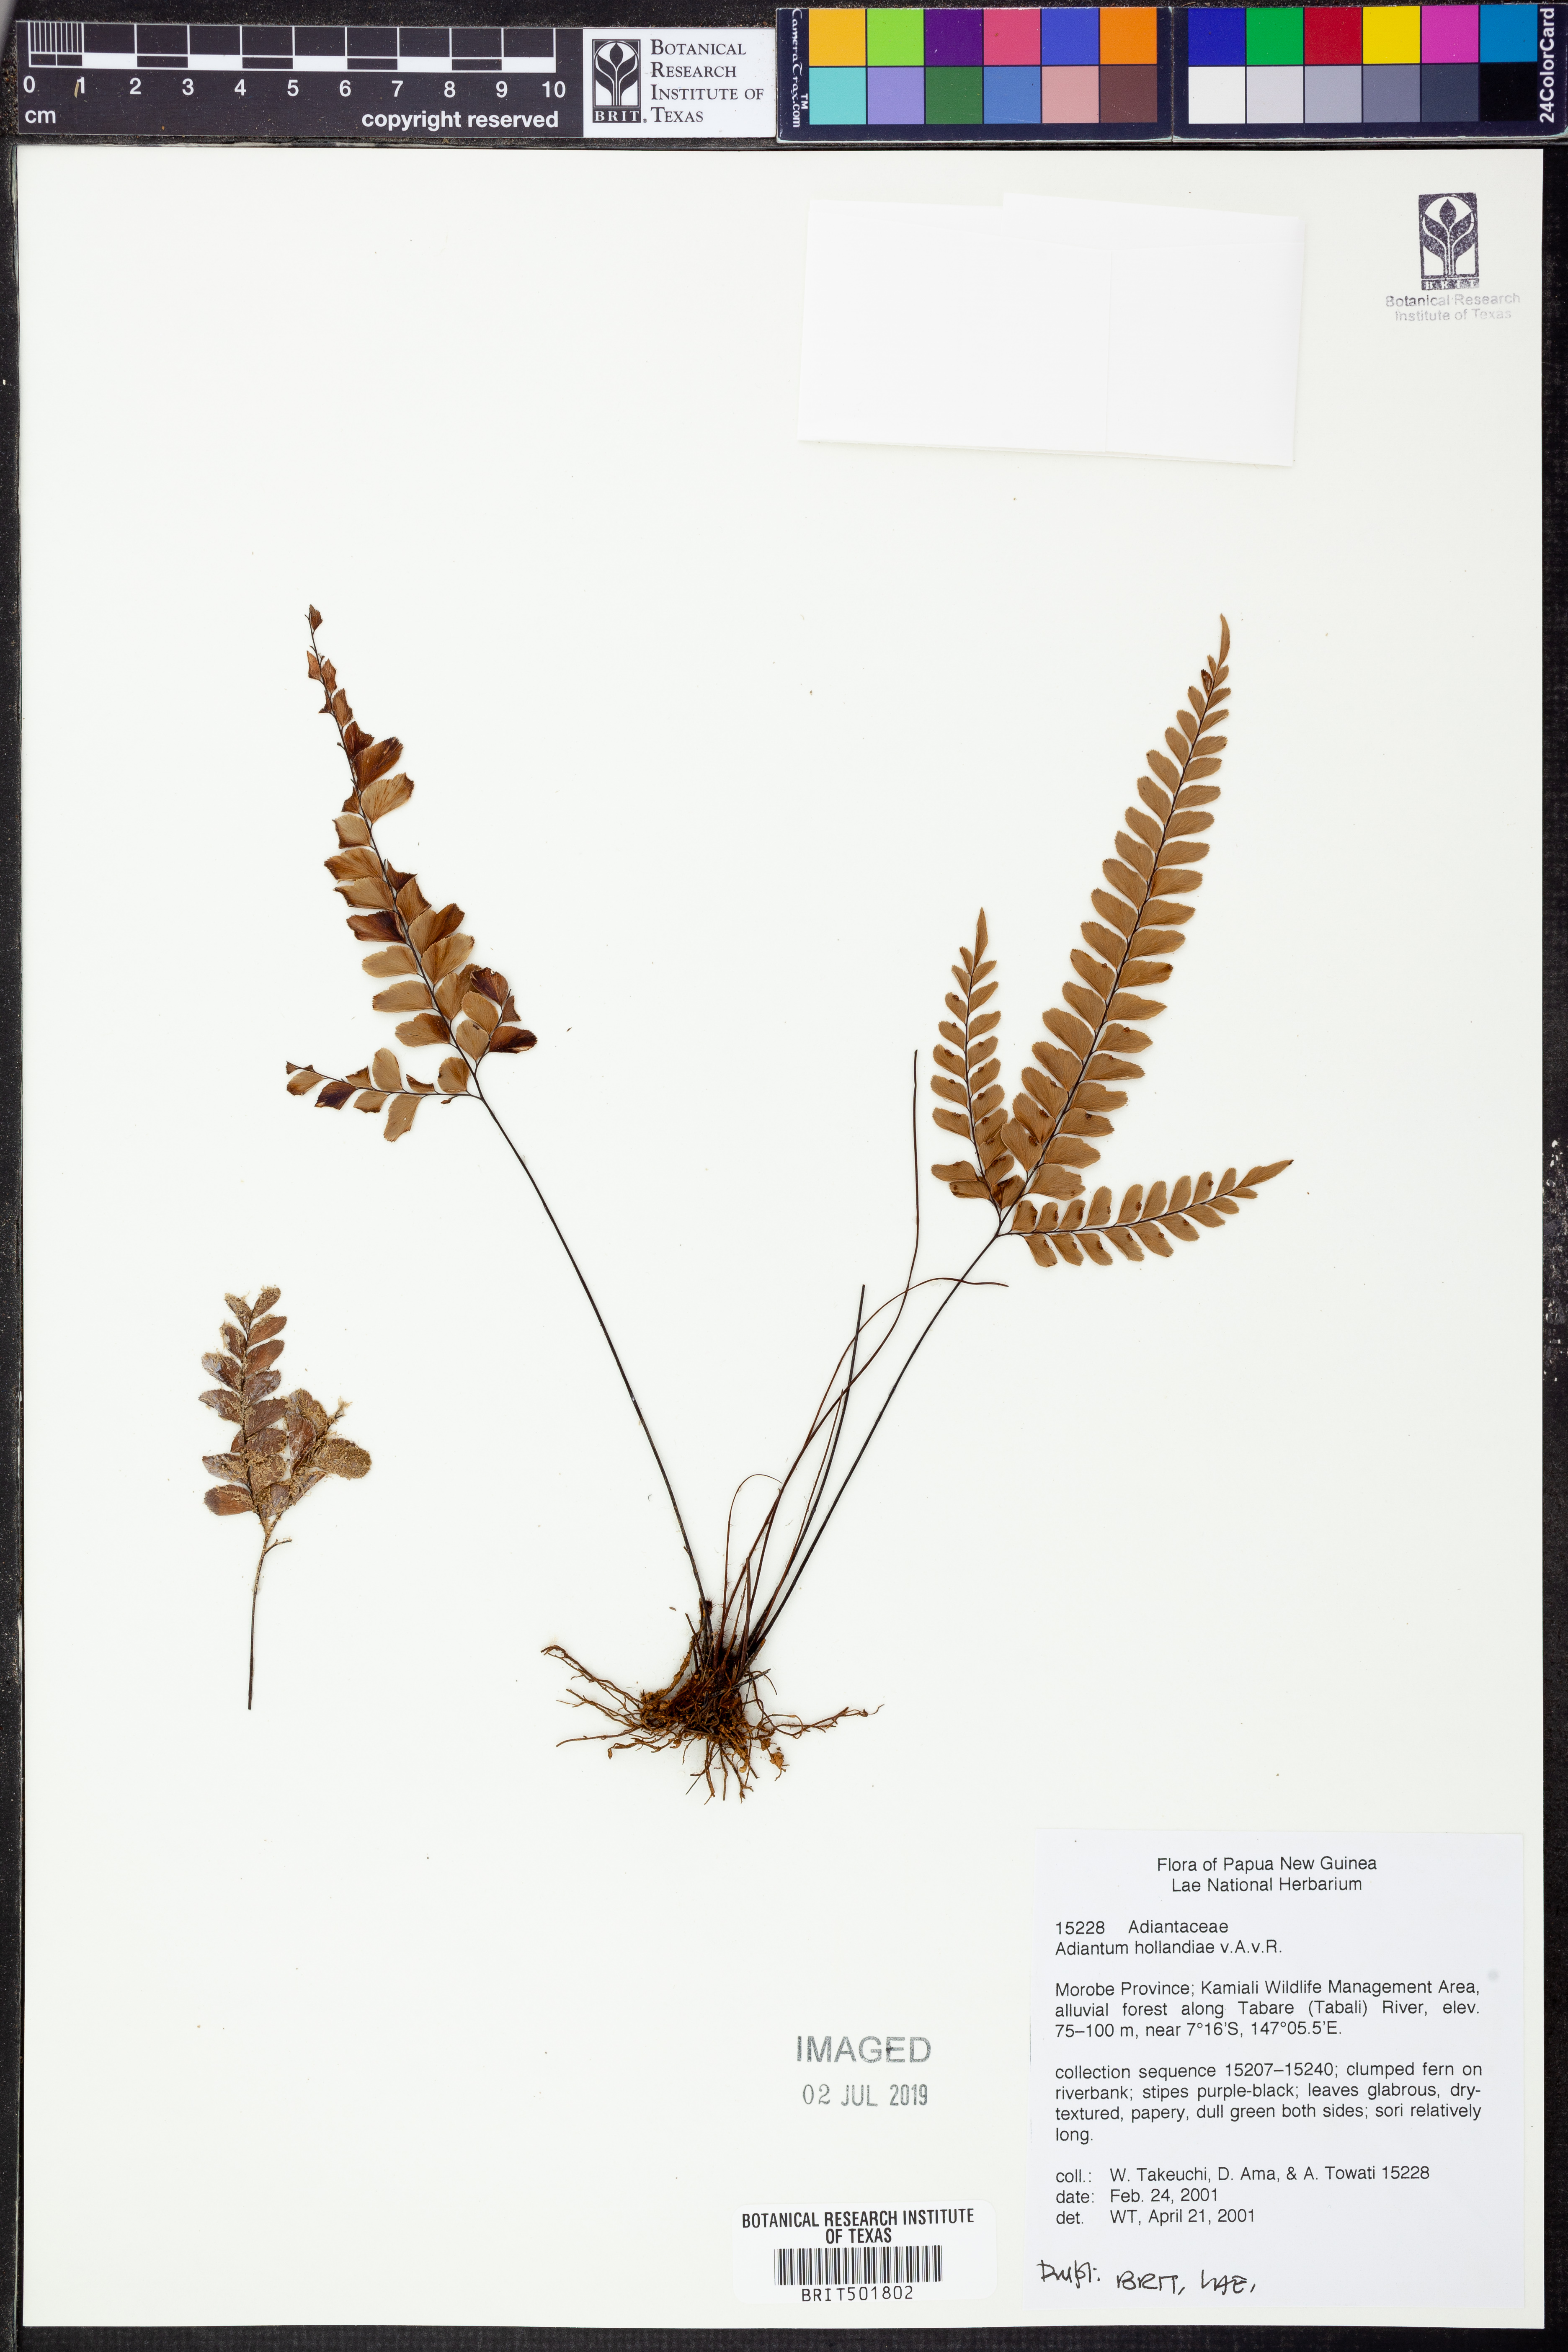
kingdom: Plantae
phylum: Tracheophyta
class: Polypodiopsida
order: Polypodiales
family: Pteridaceae
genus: Adiantum
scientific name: Adiantum hollandiae
